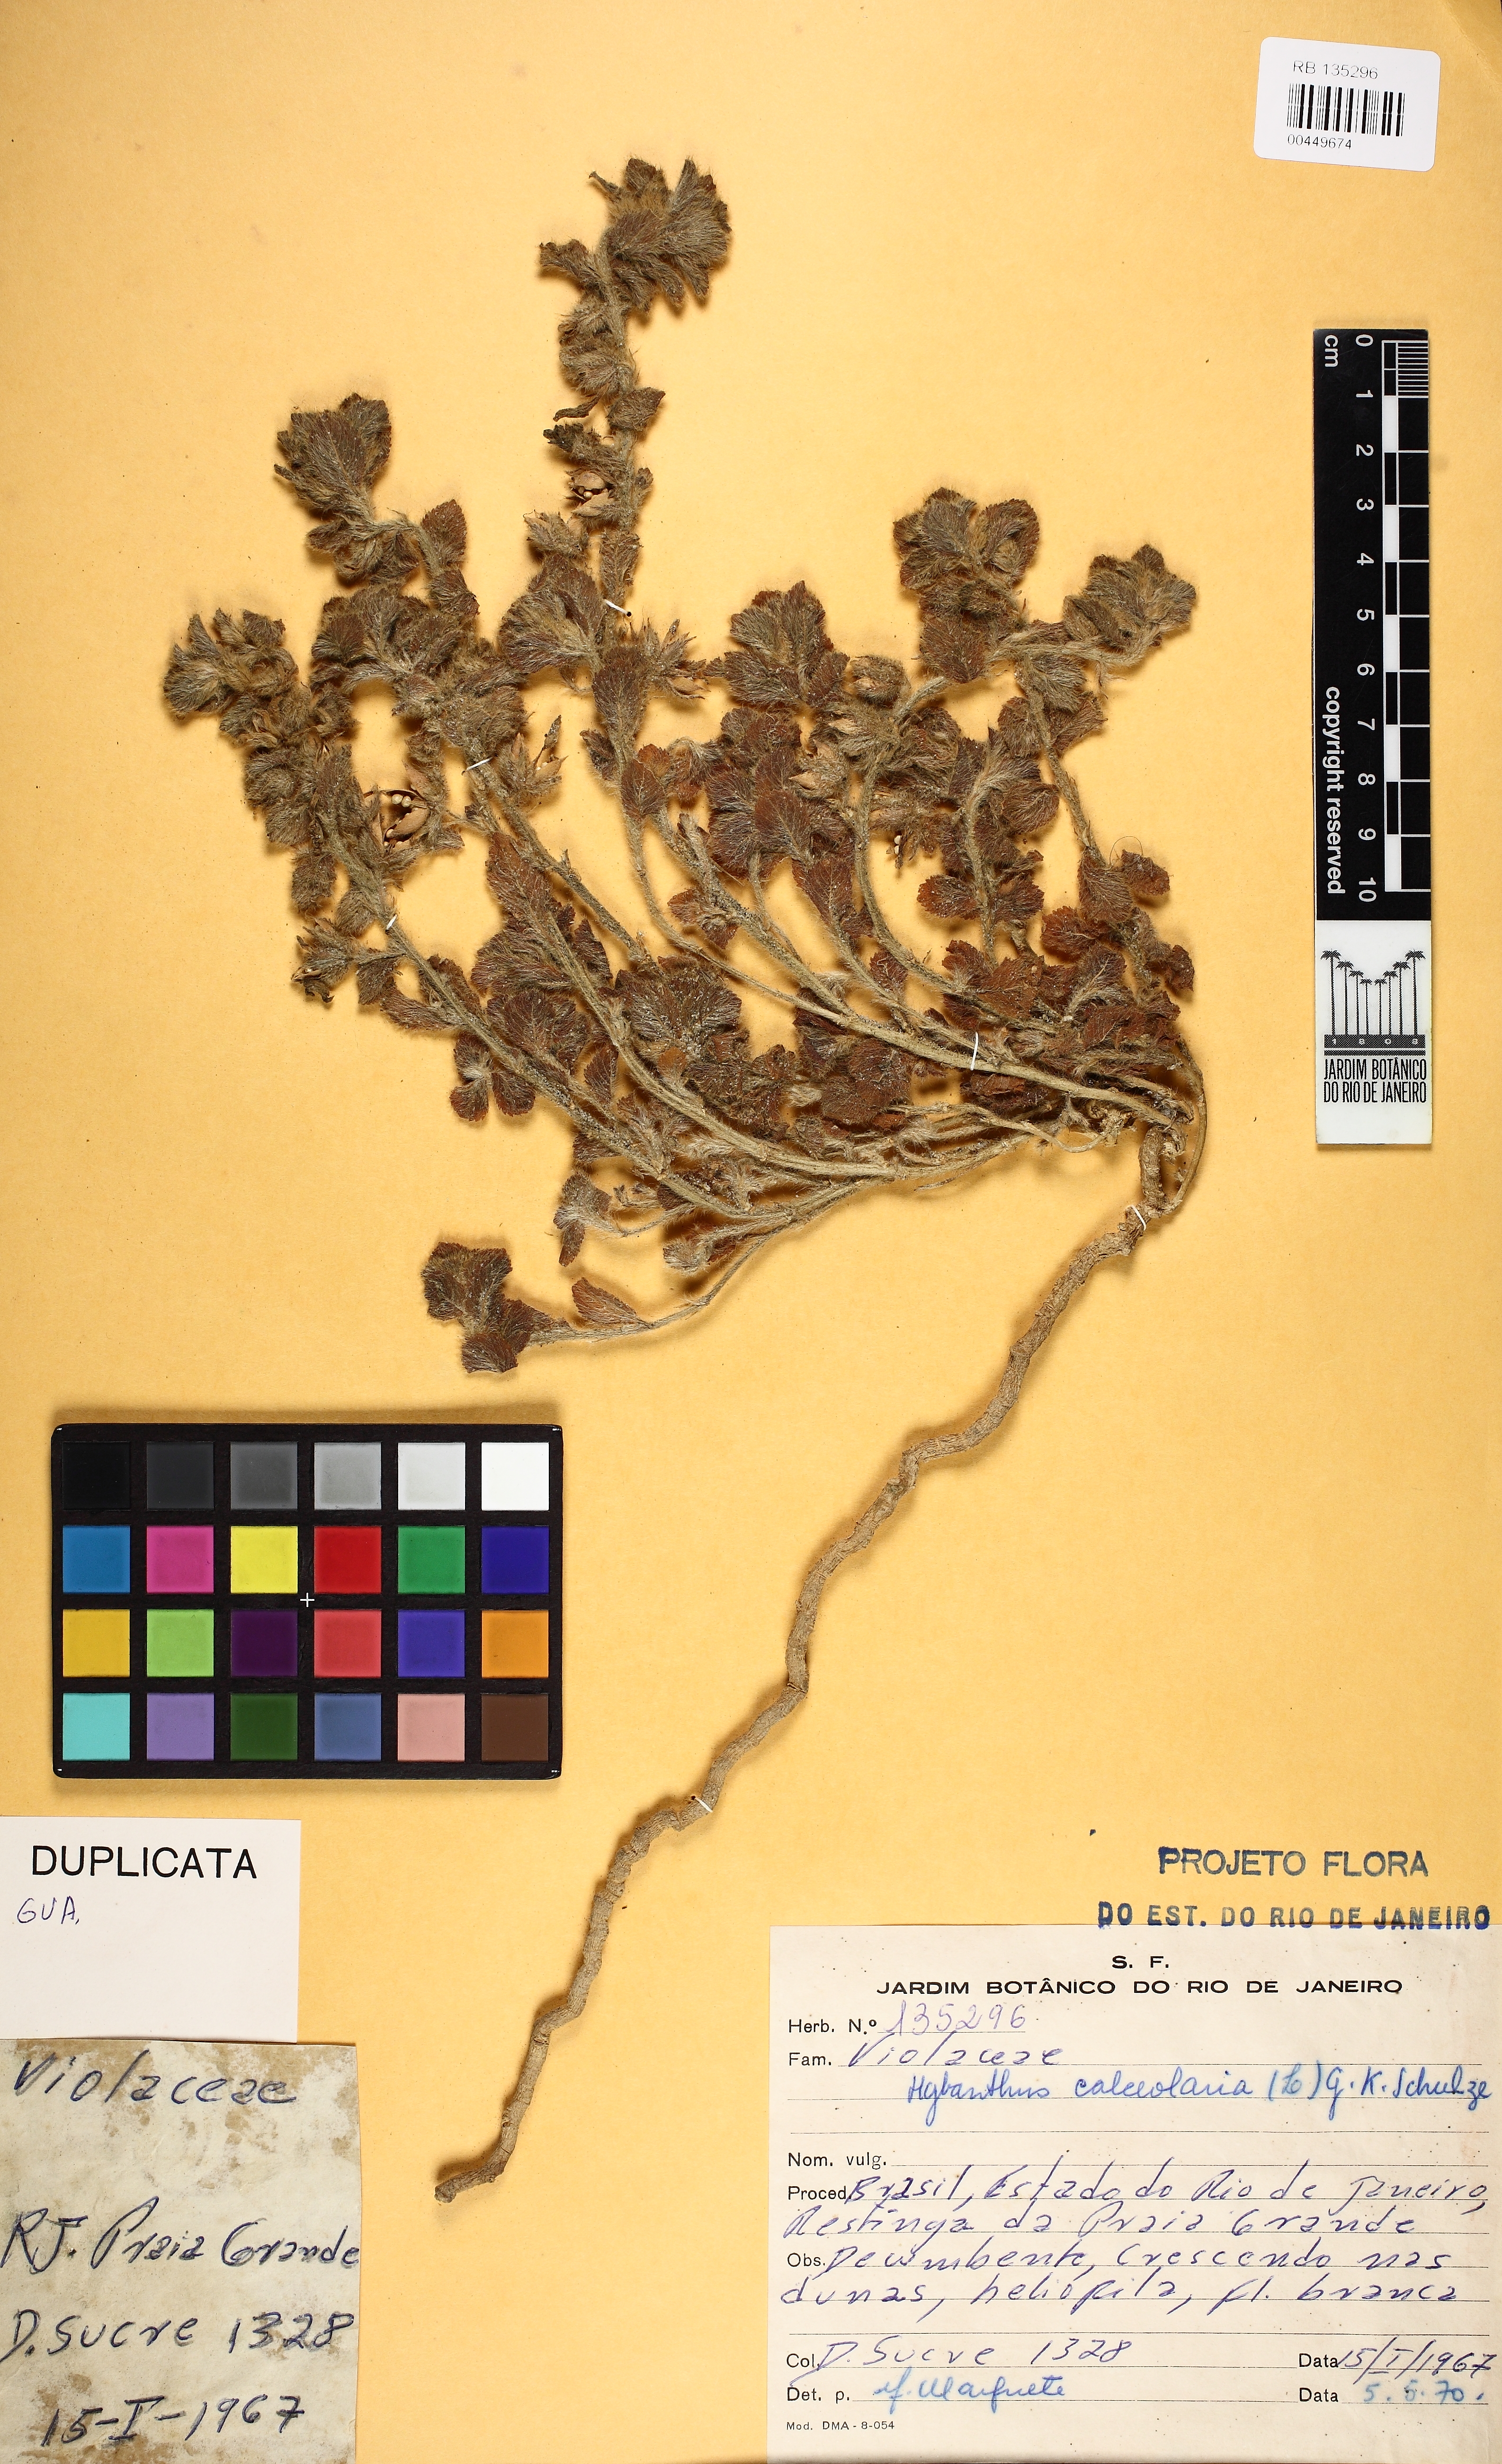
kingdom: Plantae
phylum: Tracheophyta
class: Magnoliopsida
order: Malpighiales
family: Violaceae
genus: Pombalia
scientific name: Pombalia calceolaria
